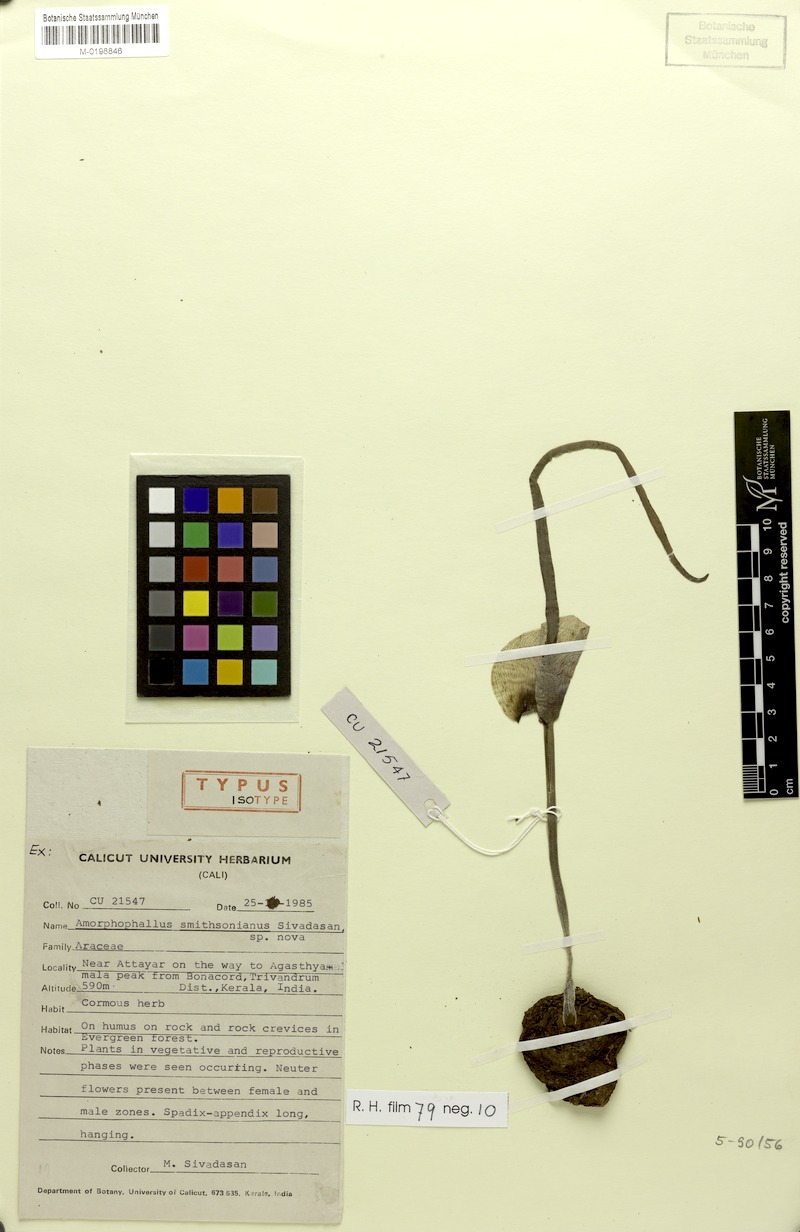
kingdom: Plantae
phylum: Tracheophyta
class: Liliopsida
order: Alismatales
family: Araceae
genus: Amorphophallus
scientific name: Amorphophallus smithsonianus
